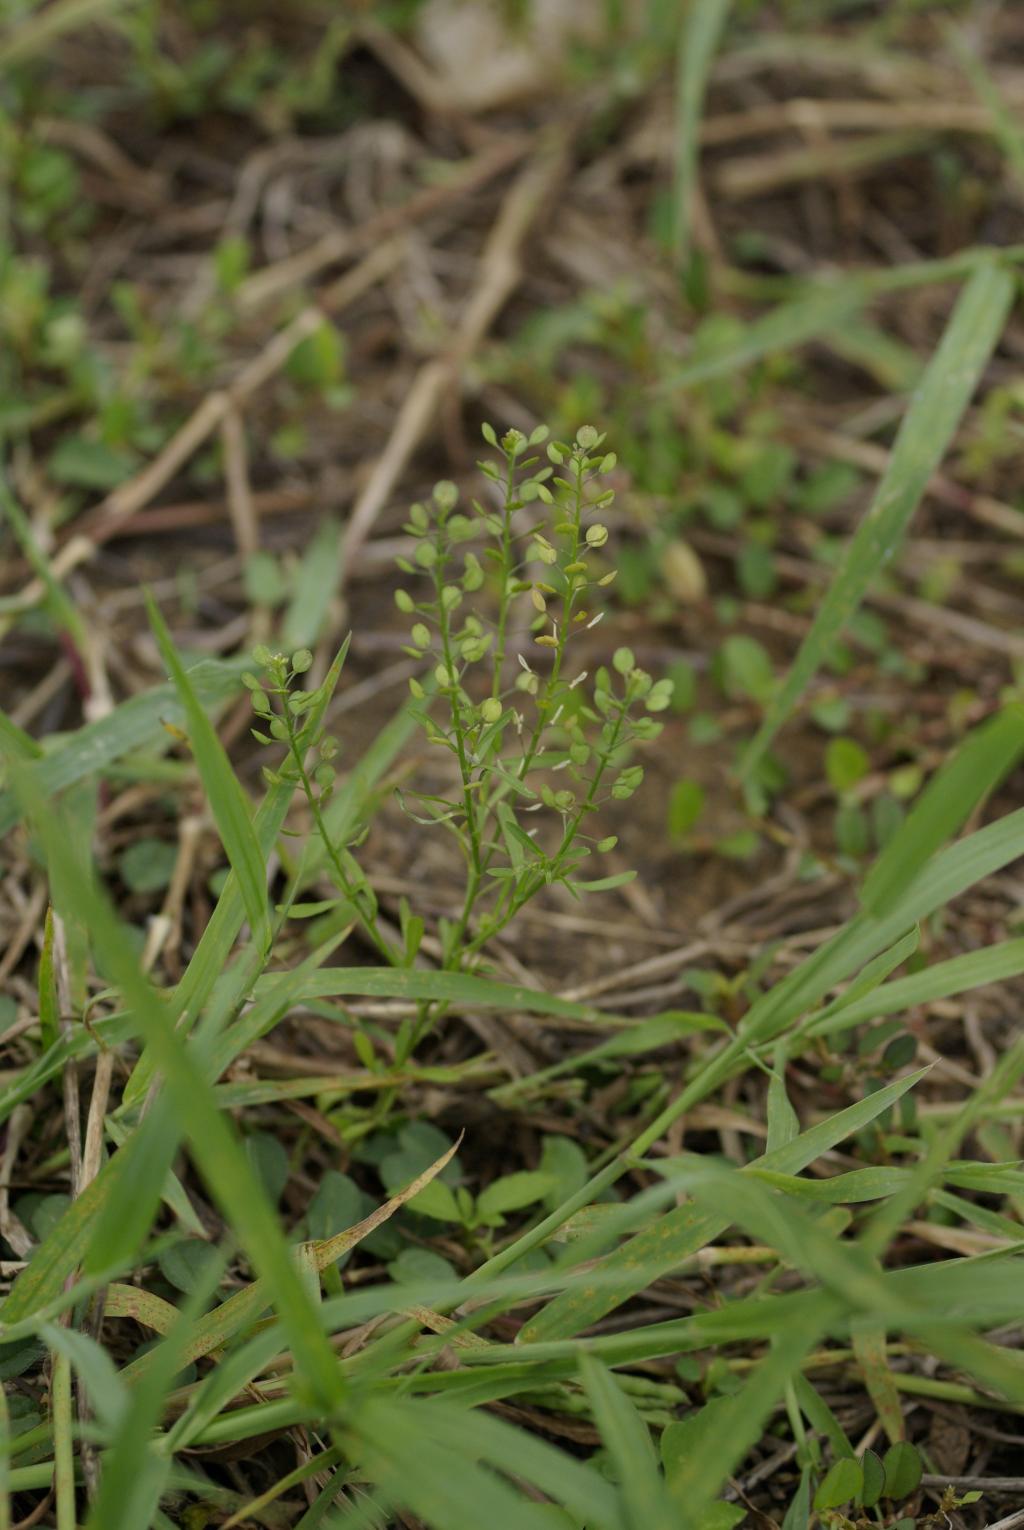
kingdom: Plantae
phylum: Tracheophyta
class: Magnoliopsida
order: Brassicales
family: Brassicaceae
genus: Lepidium
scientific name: Lepidium virginicum
